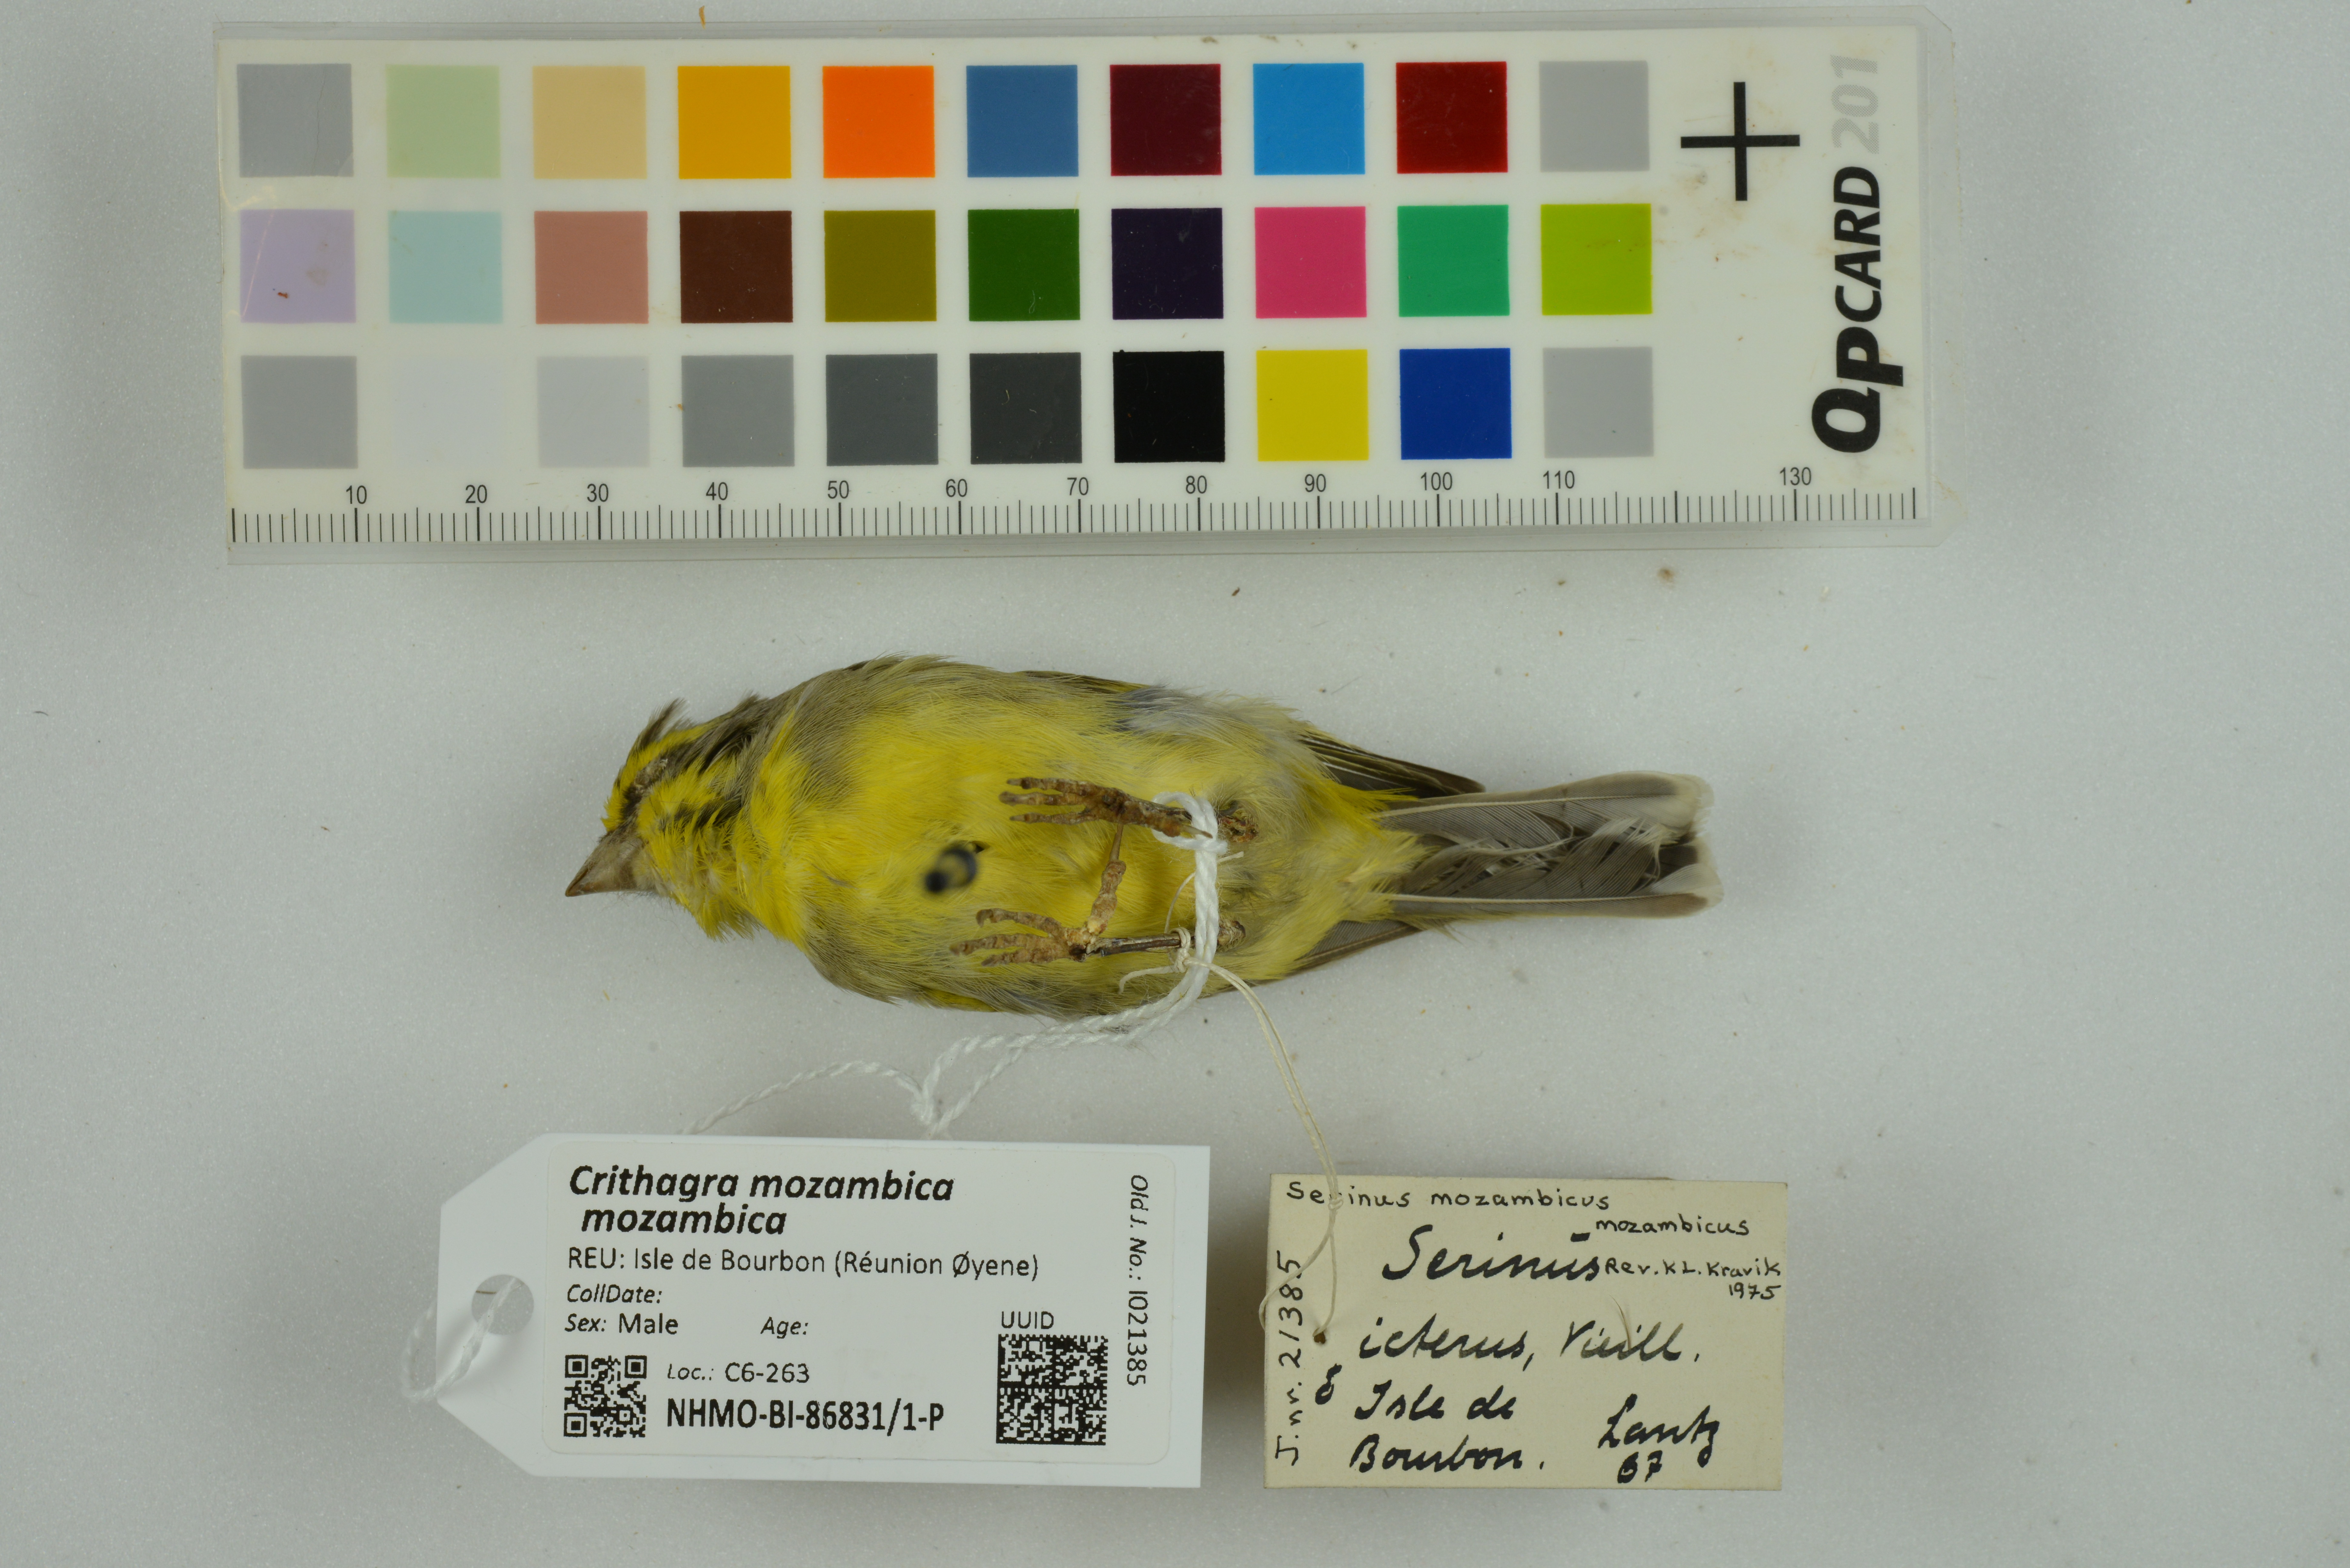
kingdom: Animalia
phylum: Chordata
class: Aves
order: Passeriformes
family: Fringillidae
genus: Crithagra
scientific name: Crithagra mozambica
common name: Yellow-fronted canary
